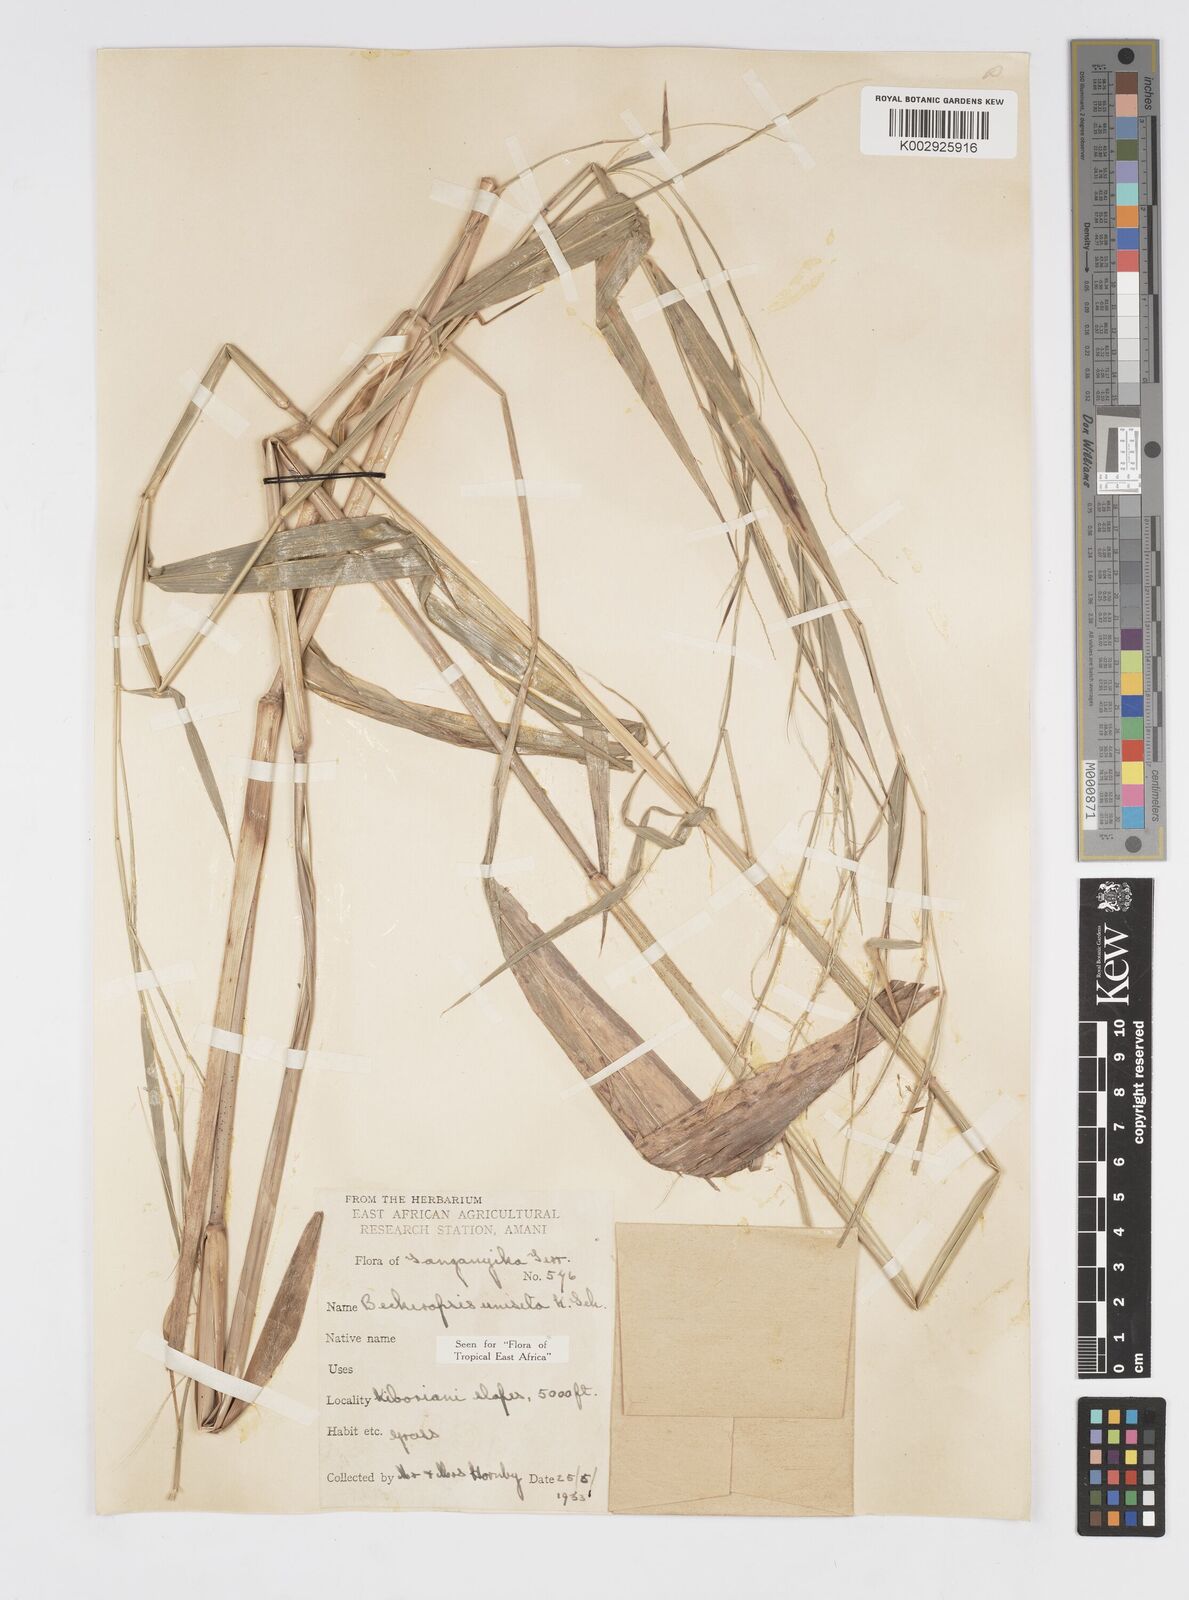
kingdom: Plantae
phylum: Tracheophyta
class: Liliopsida
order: Poales
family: Poaceae
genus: Cenchrus
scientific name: Cenchrus unisetus
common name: Natal grass
